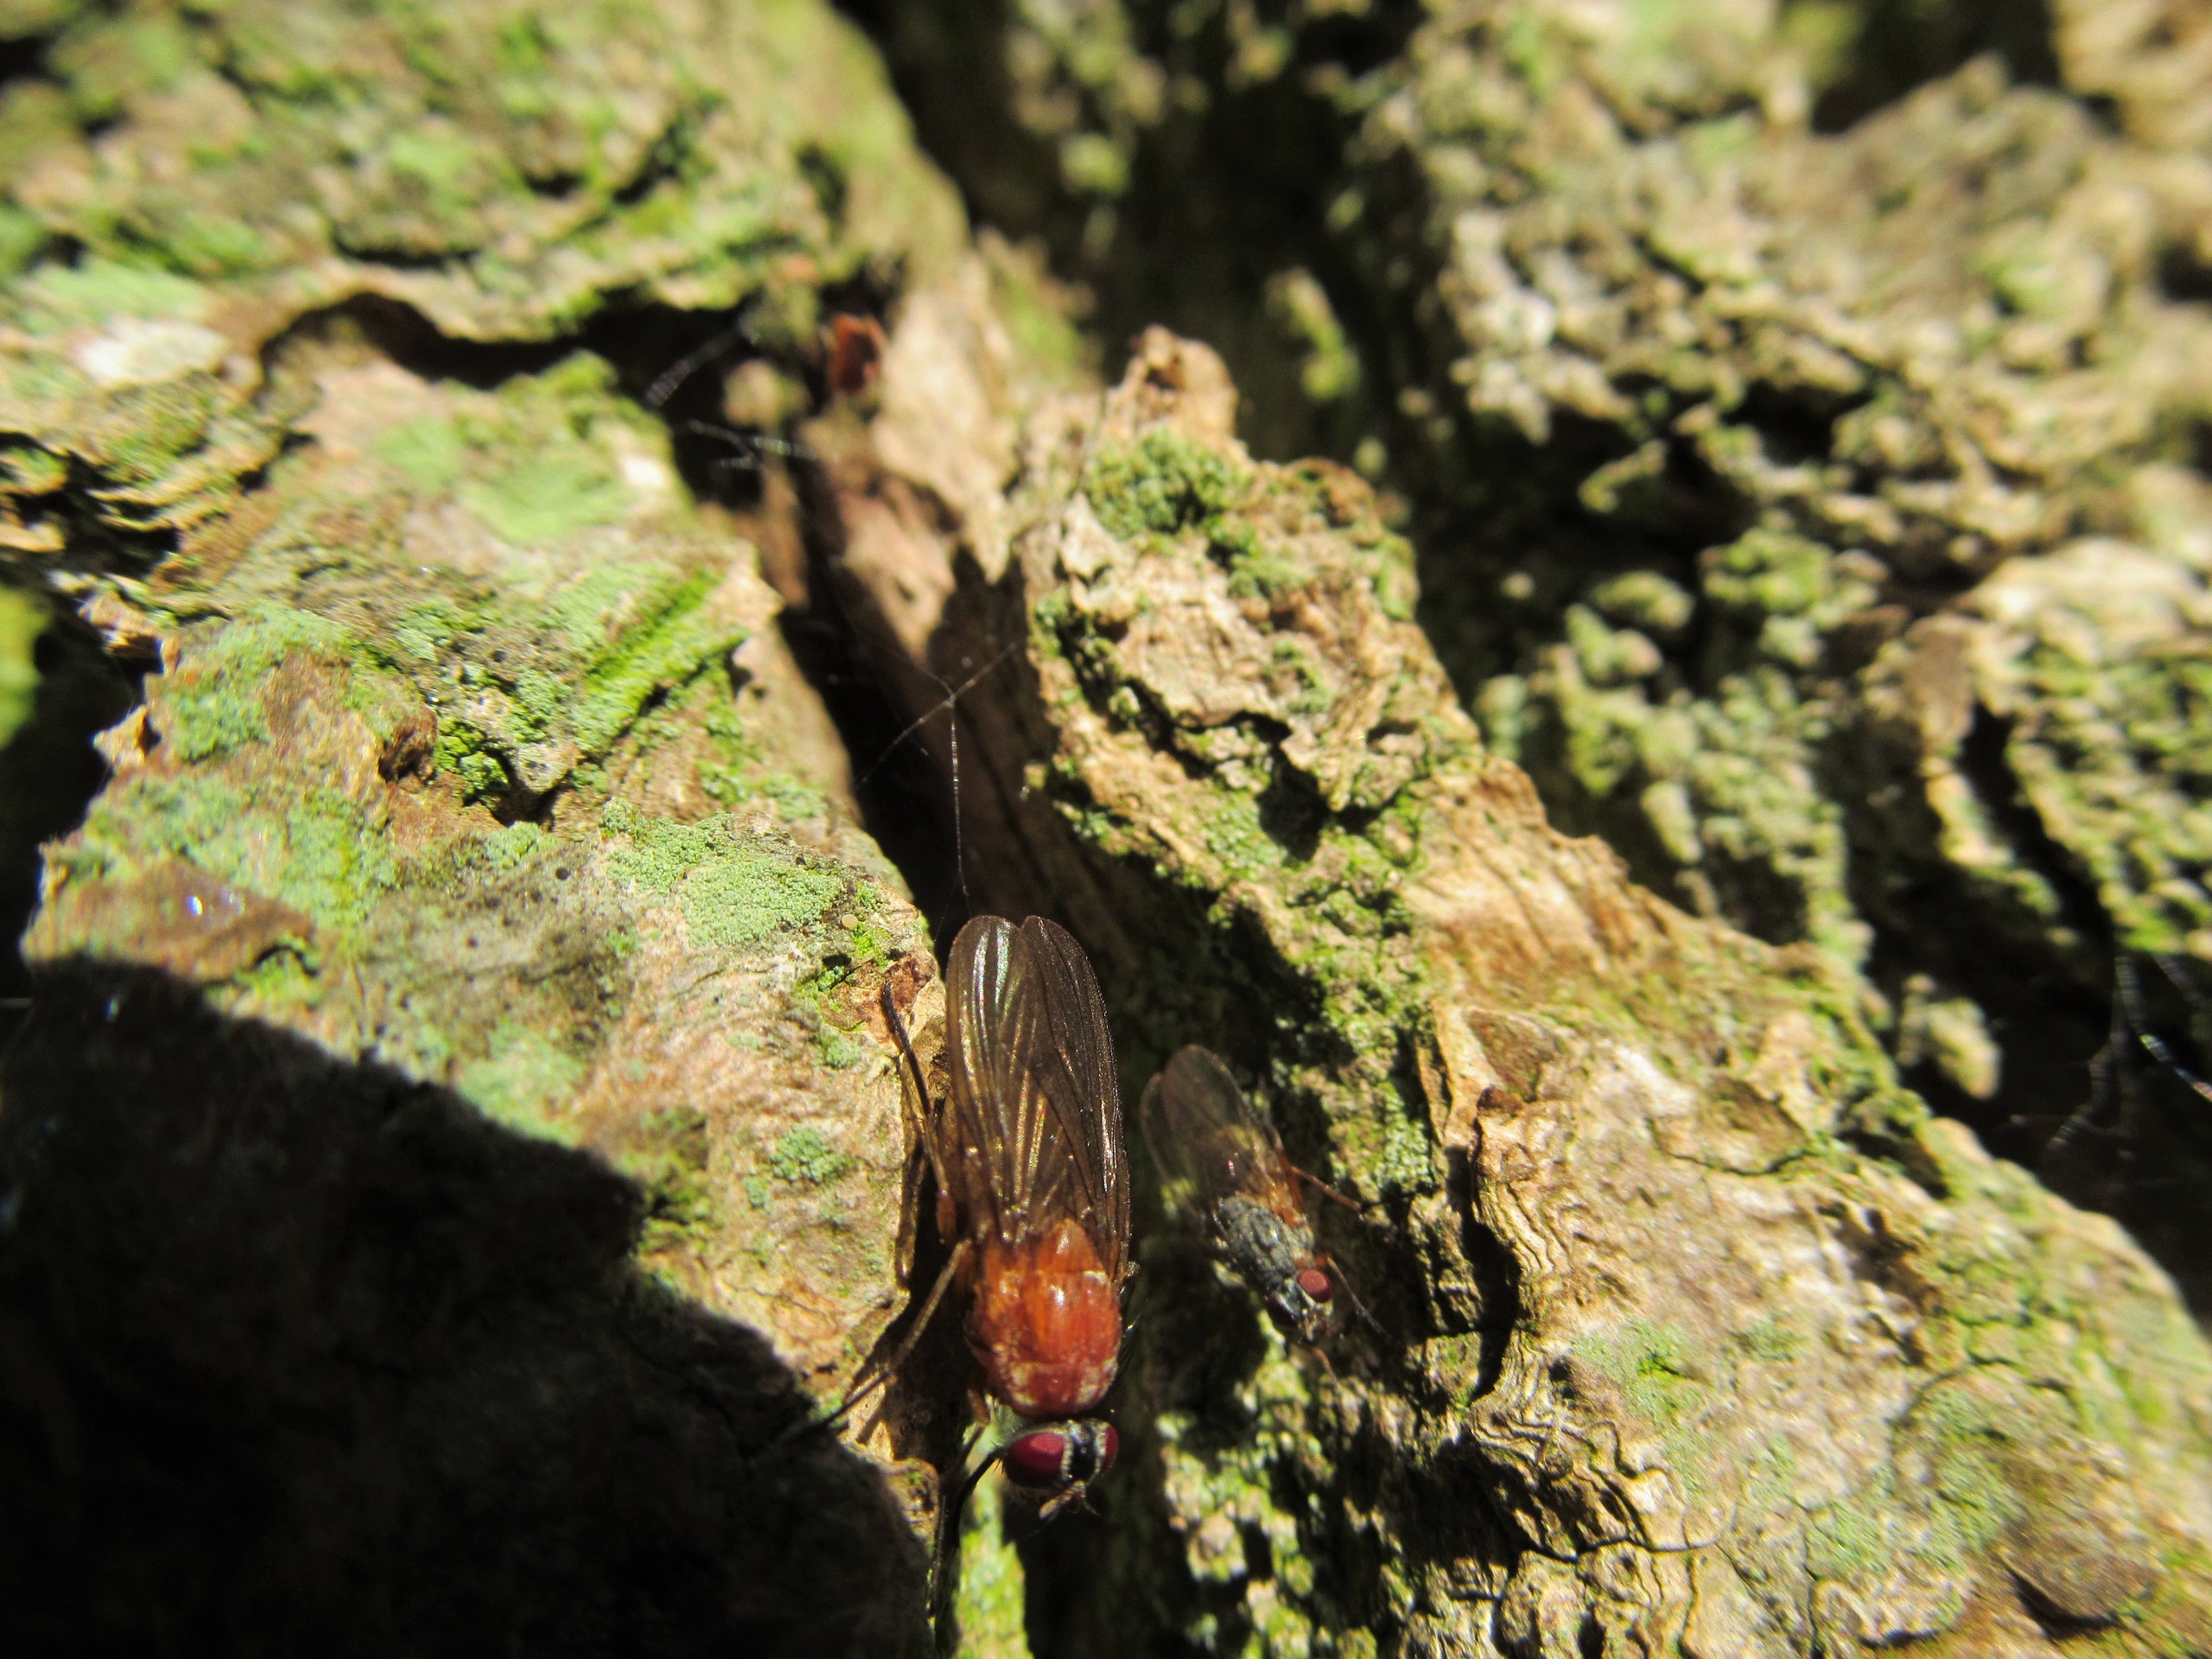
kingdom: Animalia
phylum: Arthropoda
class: Insecta
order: Diptera
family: Muscidae
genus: Thricops
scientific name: Thricops diaphanus
